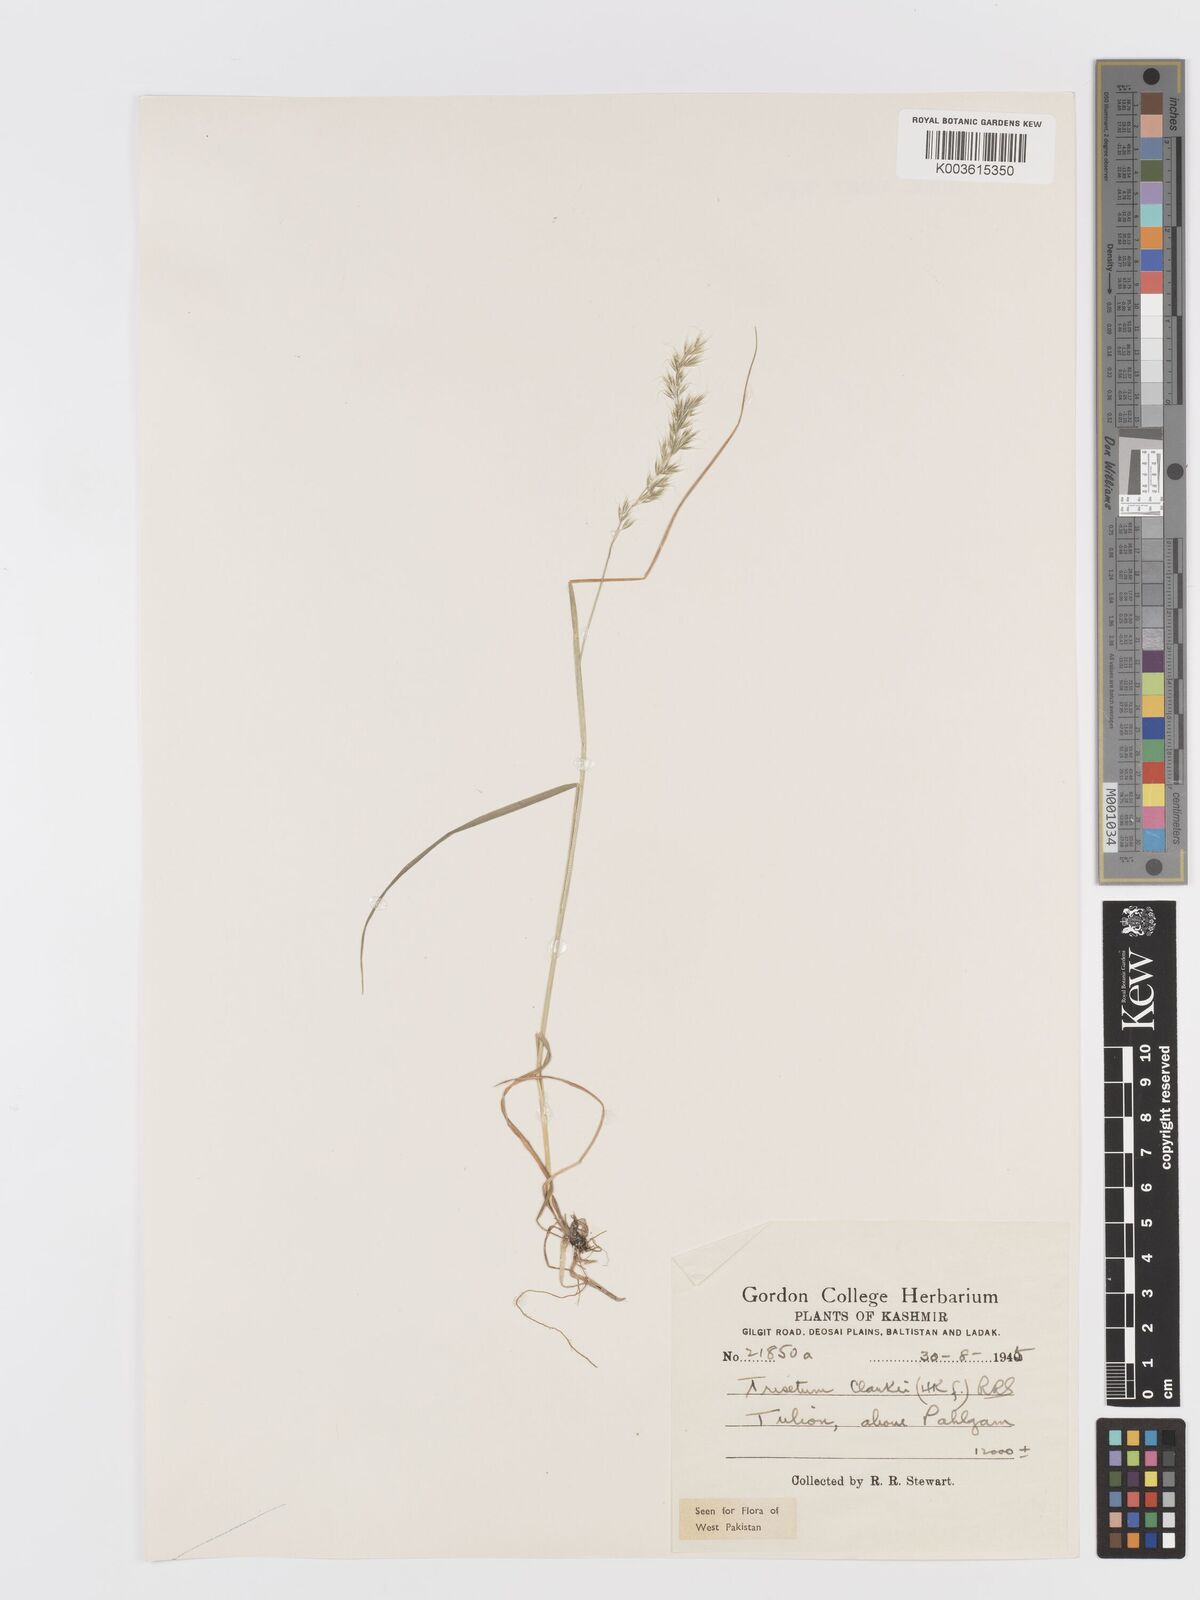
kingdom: Plantae
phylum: Tracheophyta
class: Liliopsida
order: Poales
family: Poaceae
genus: Trisetum
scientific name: Trisetum clarkei
